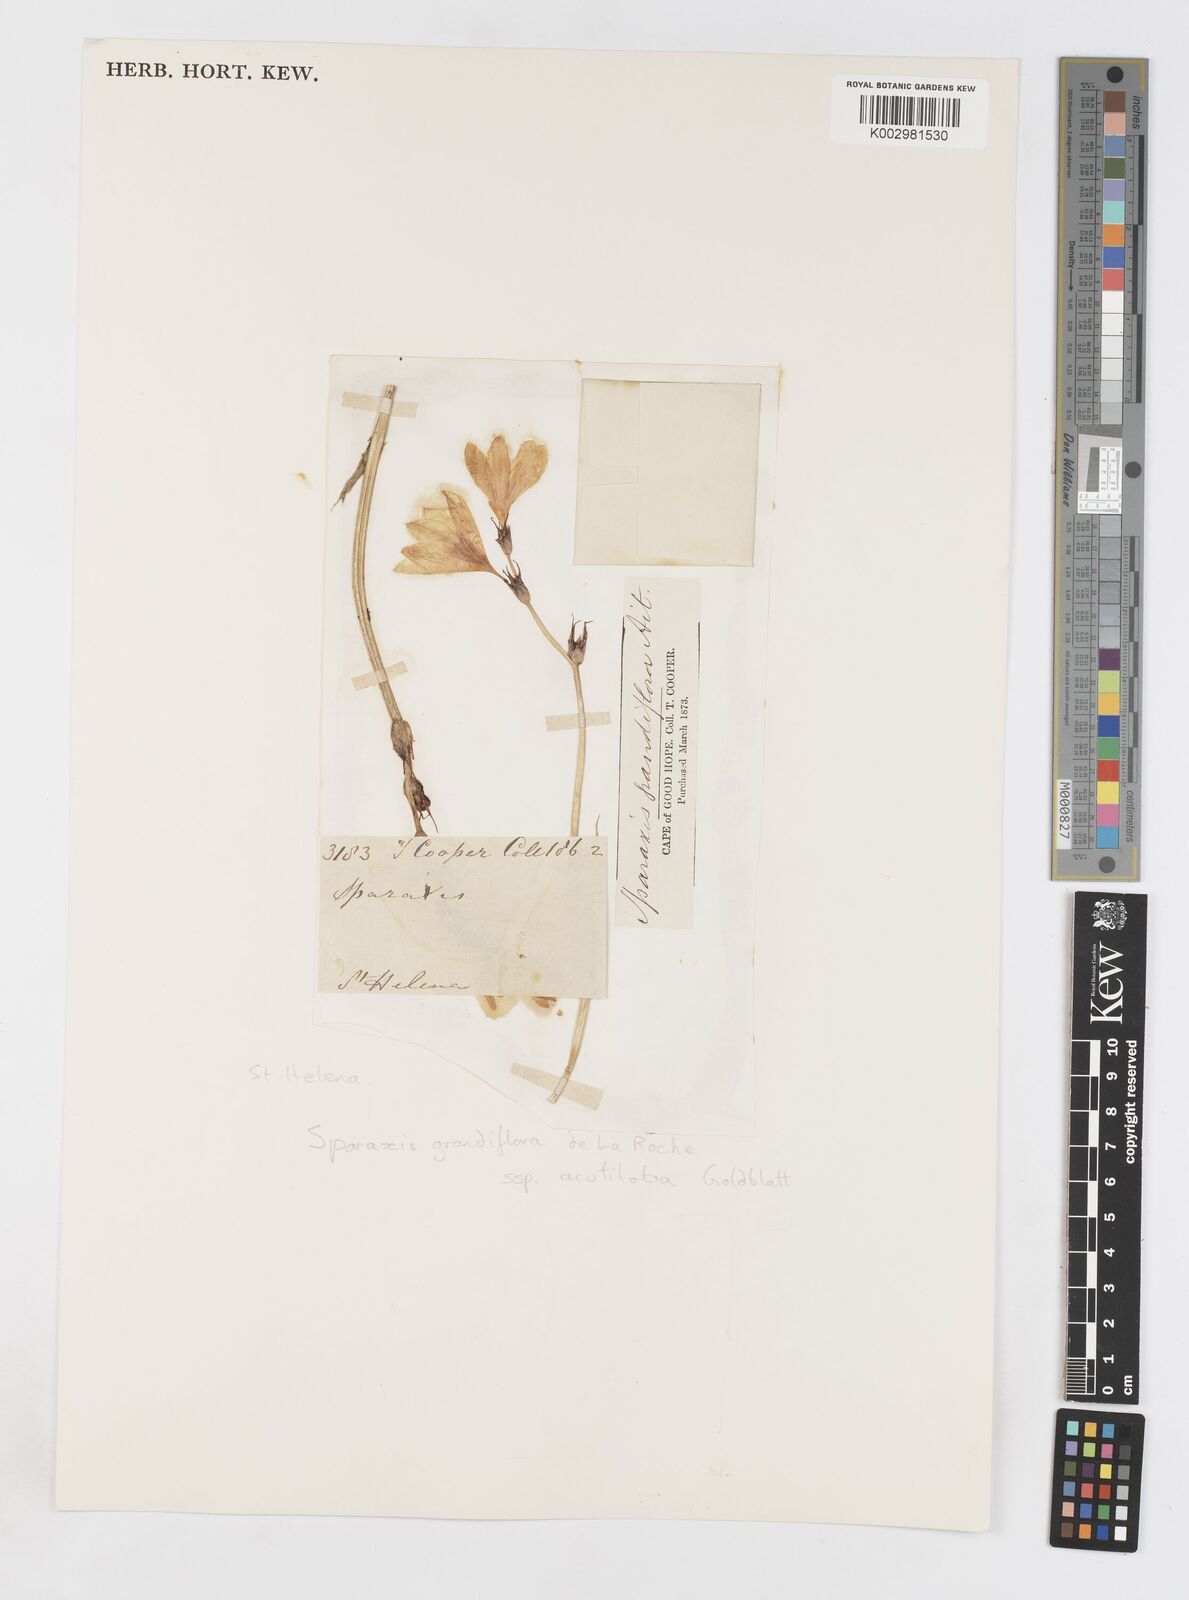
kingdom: Plantae
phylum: Tracheophyta
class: Liliopsida
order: Asparagales
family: Iridaceae
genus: Sparaxis
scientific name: Sparaxis grandiflora
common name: Plain harlequin-flower
